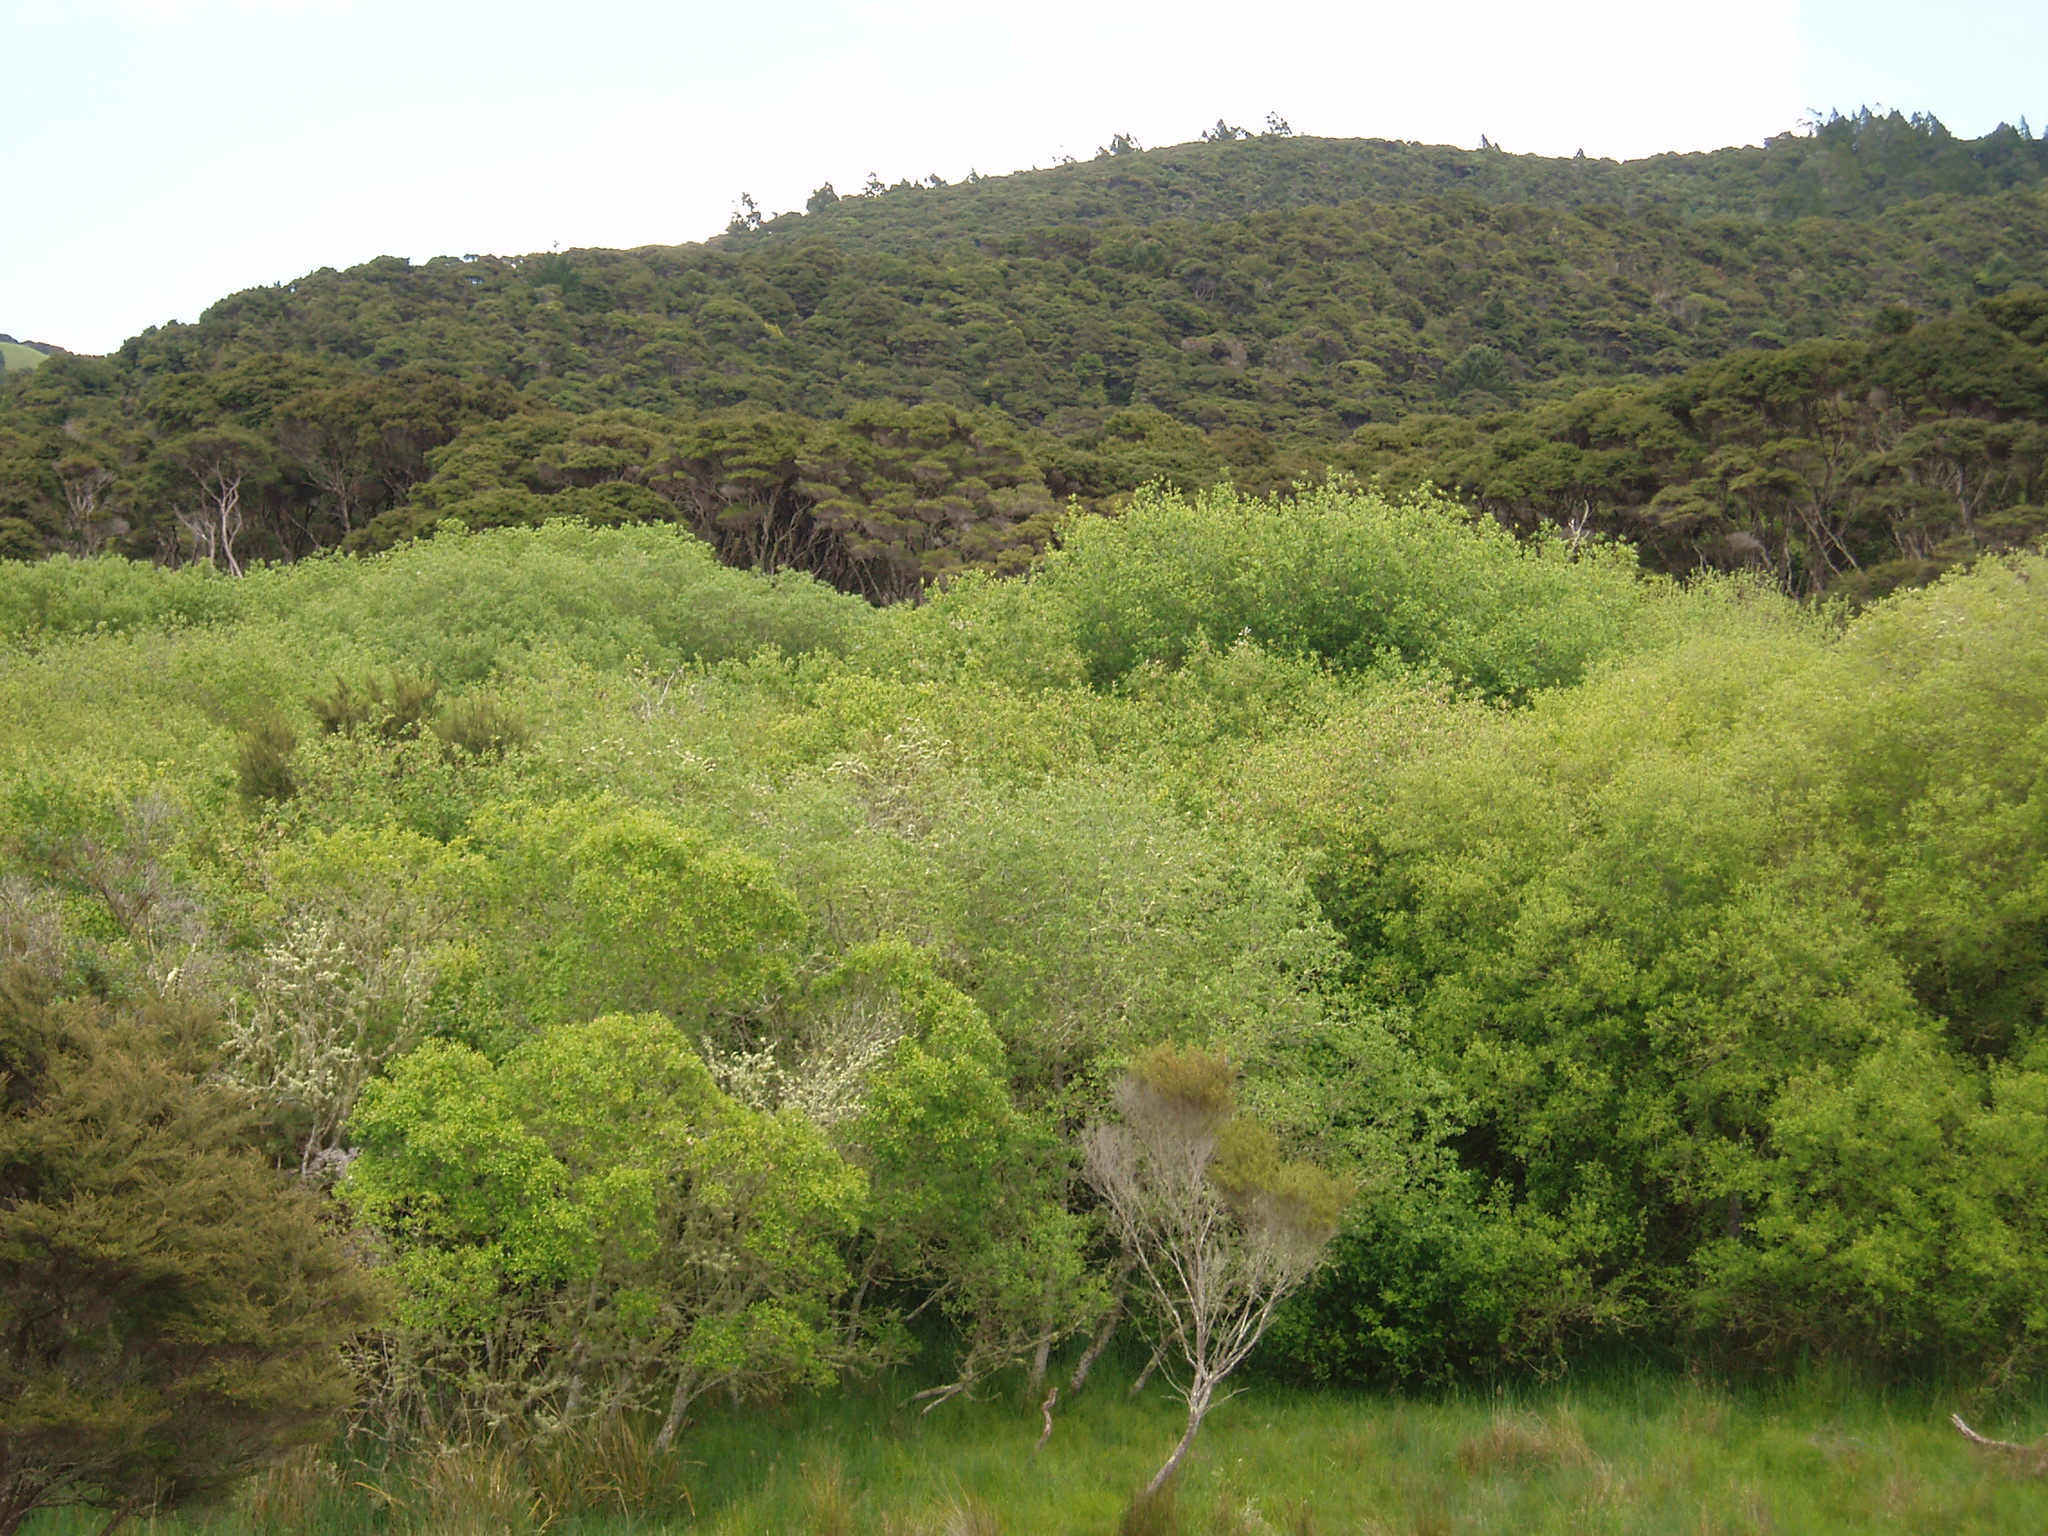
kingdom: Plantae
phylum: Tracheophyta
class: Magnoliopsida
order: Malpighiales
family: Salicaceae
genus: Salix
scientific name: Salix cinerea
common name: Common sallow
